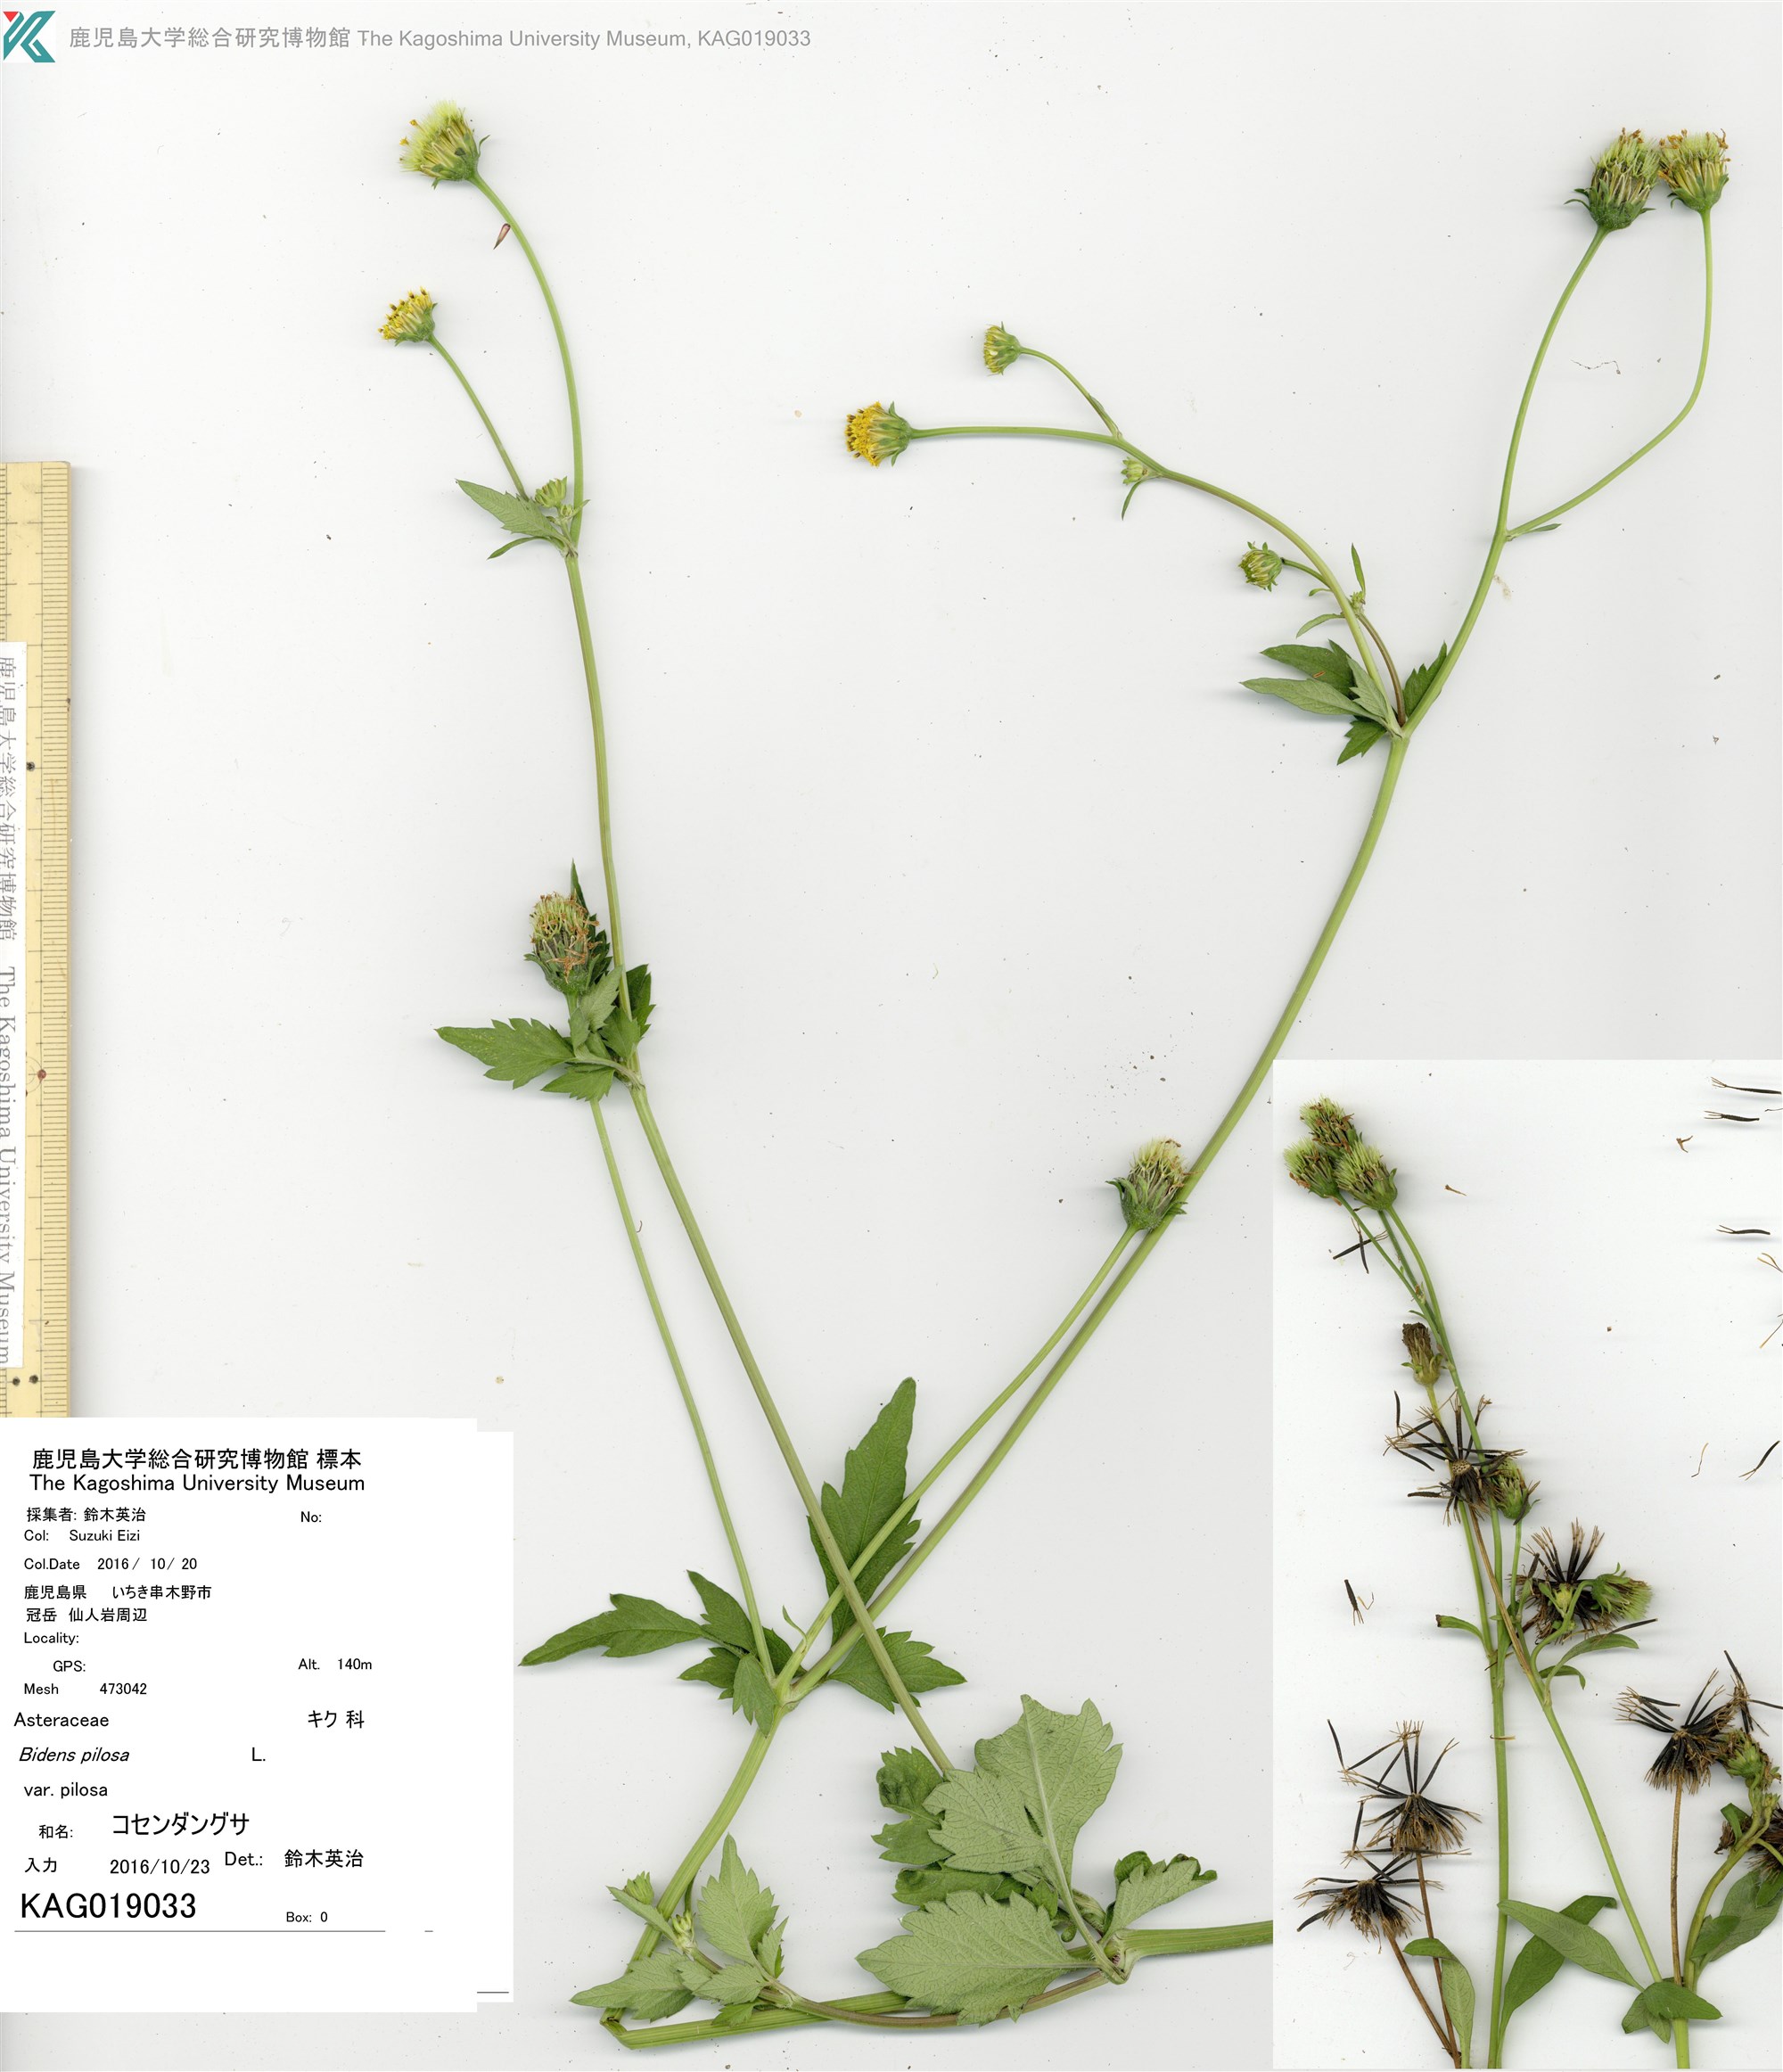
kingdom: Plantae
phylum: Tracheophyta
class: Magnoliopsida
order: Asterales
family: Asteraceae
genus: Bidens
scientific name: Bidens pilosa
